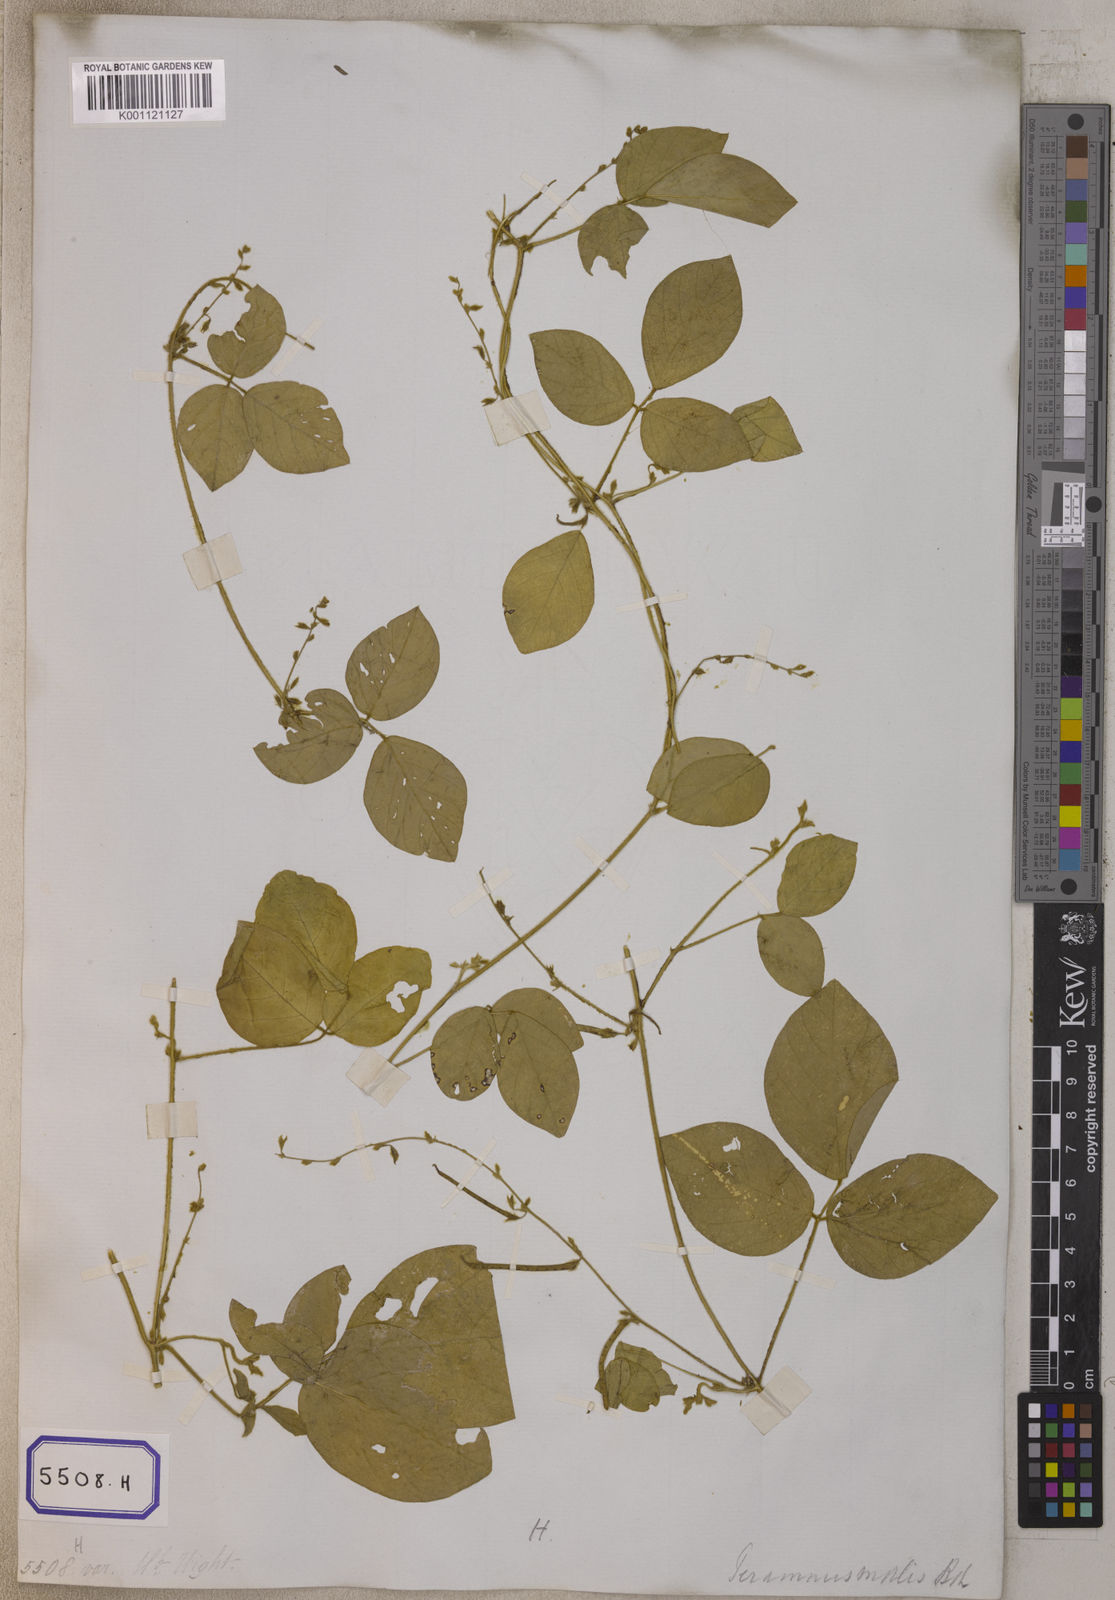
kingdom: Plantae
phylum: Tracheophyta
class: Magnoliopsida
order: Fabales
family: Fabaceae
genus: Teramnus
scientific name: Teramnus labialis
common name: Blue wiss
